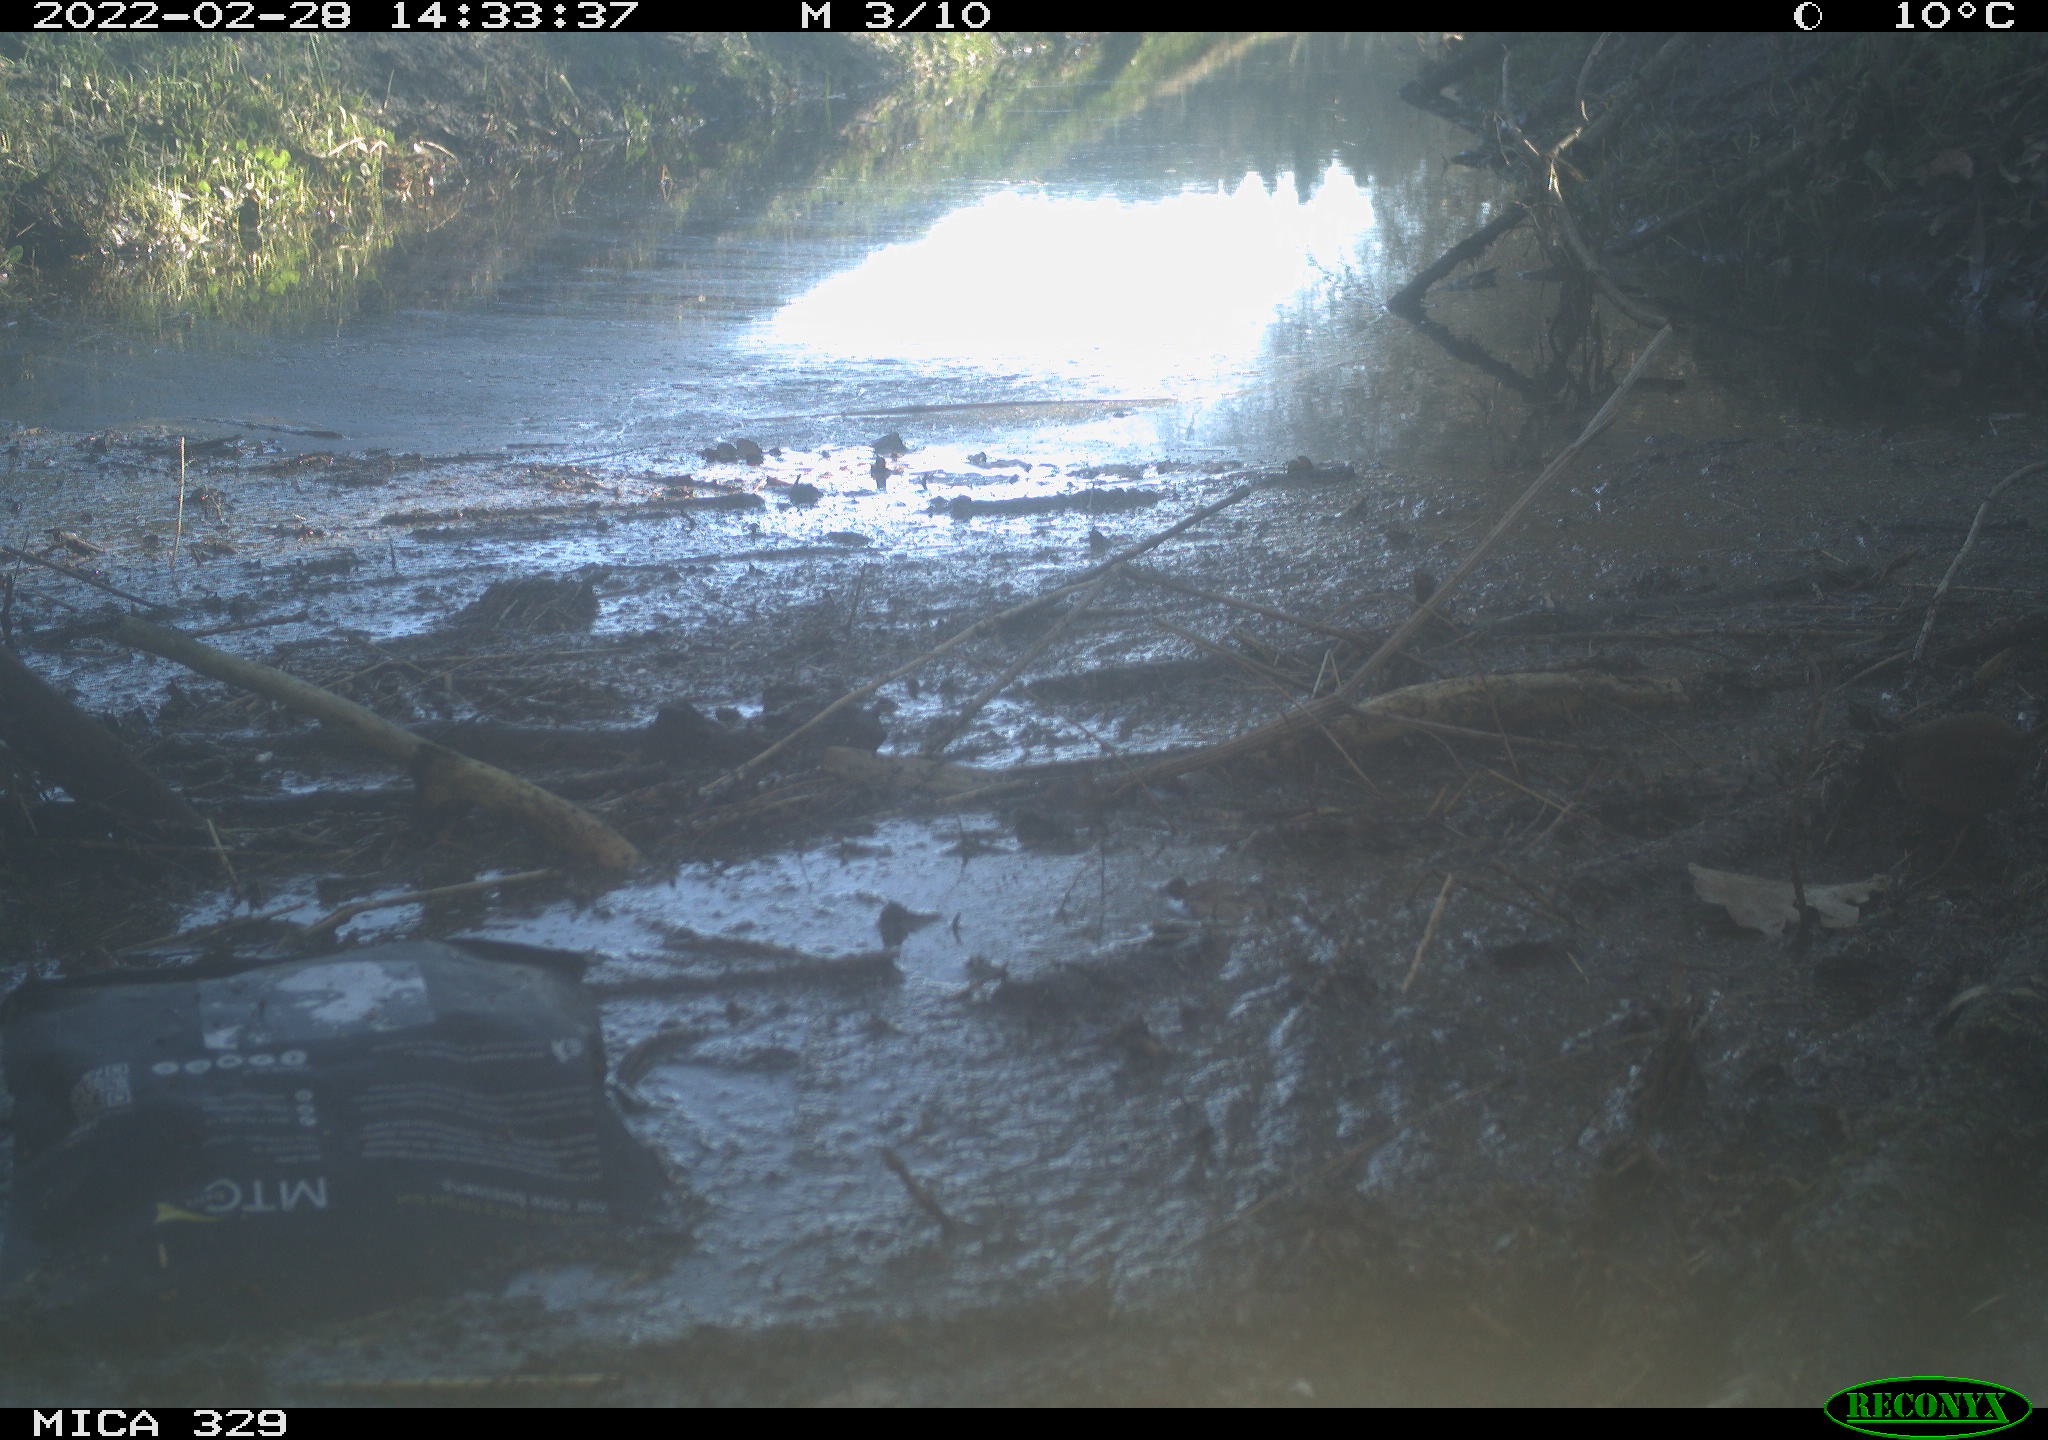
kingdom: Animalia
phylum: Chordata
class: Aves
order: Passeriformes
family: Troglodytidae
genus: Troglodytes
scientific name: Troglodytes troglodytes
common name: Eurasian wren
